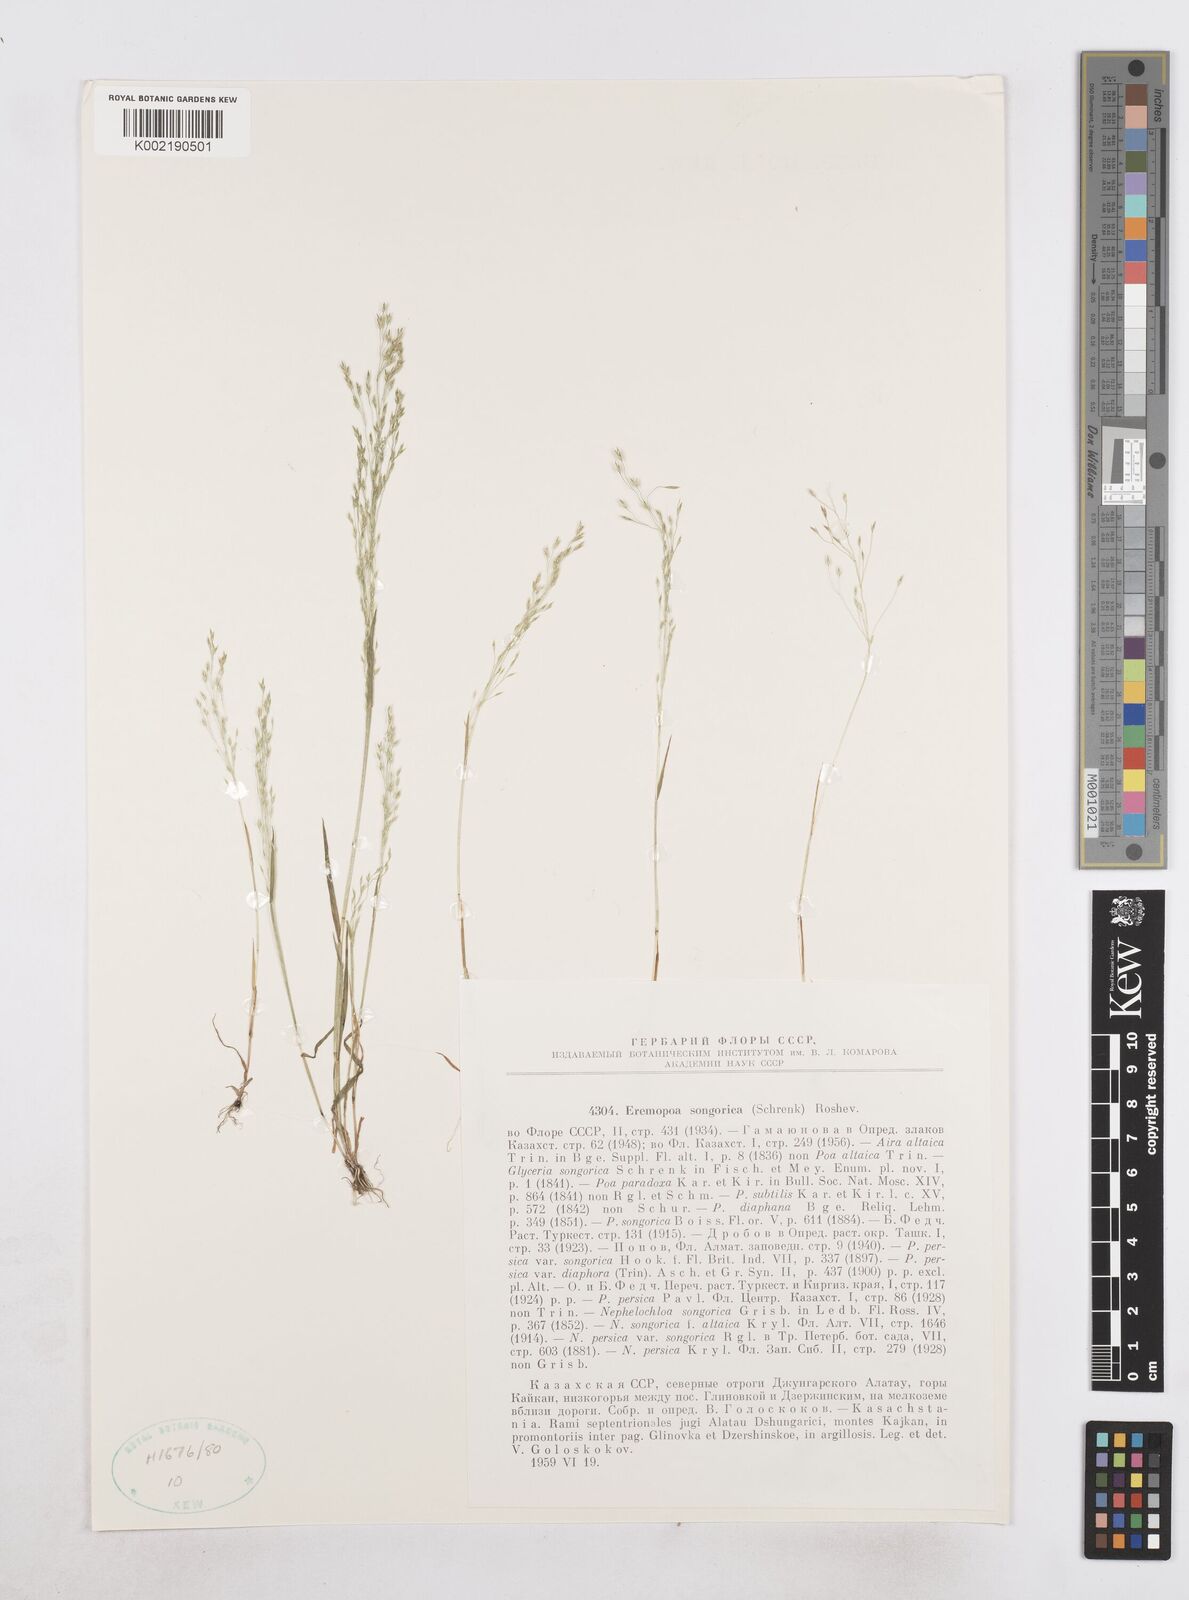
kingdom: Plantae
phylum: Tracheophyta
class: Liliopsida
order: Poales
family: Poaceae
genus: Poa
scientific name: Poa diaphora
